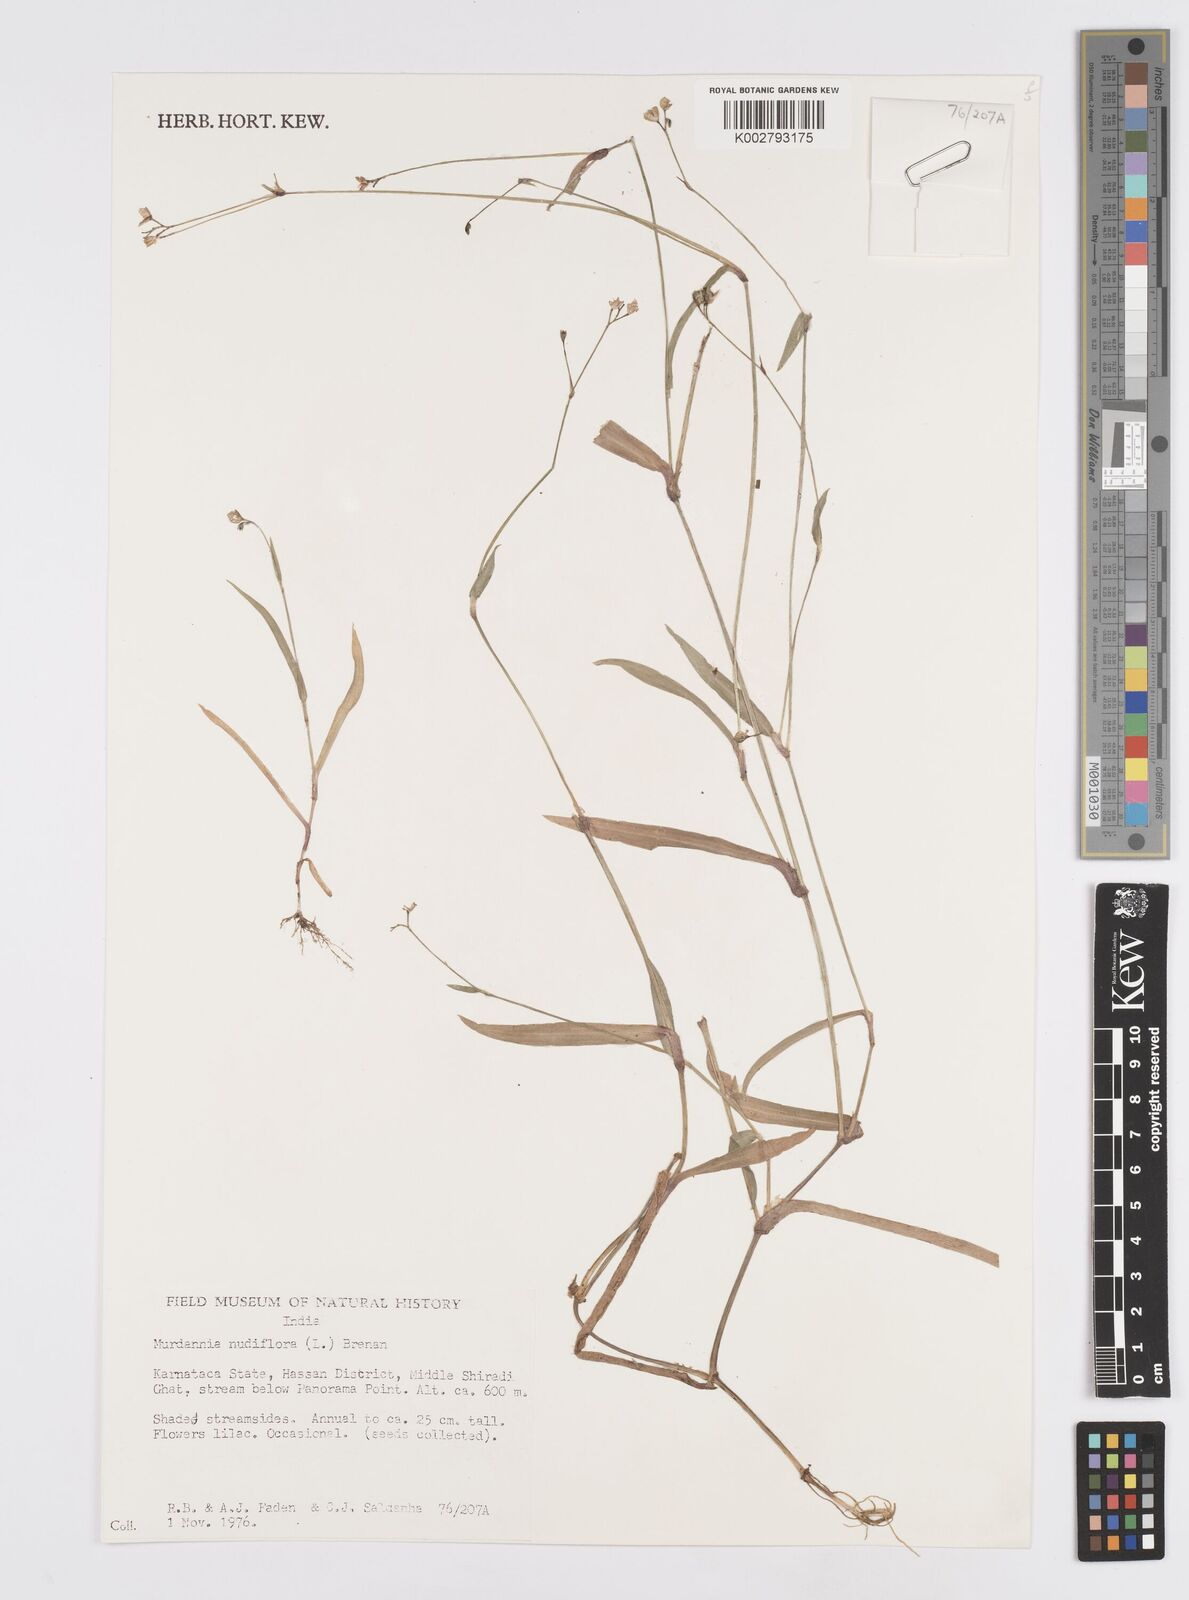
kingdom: Plantae
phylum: Tracheophyta
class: Liliopsida
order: Commelinales
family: Commelinaceae
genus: Murdannia
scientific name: Murdannia nudiflora
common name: Nakedstem dewflower
